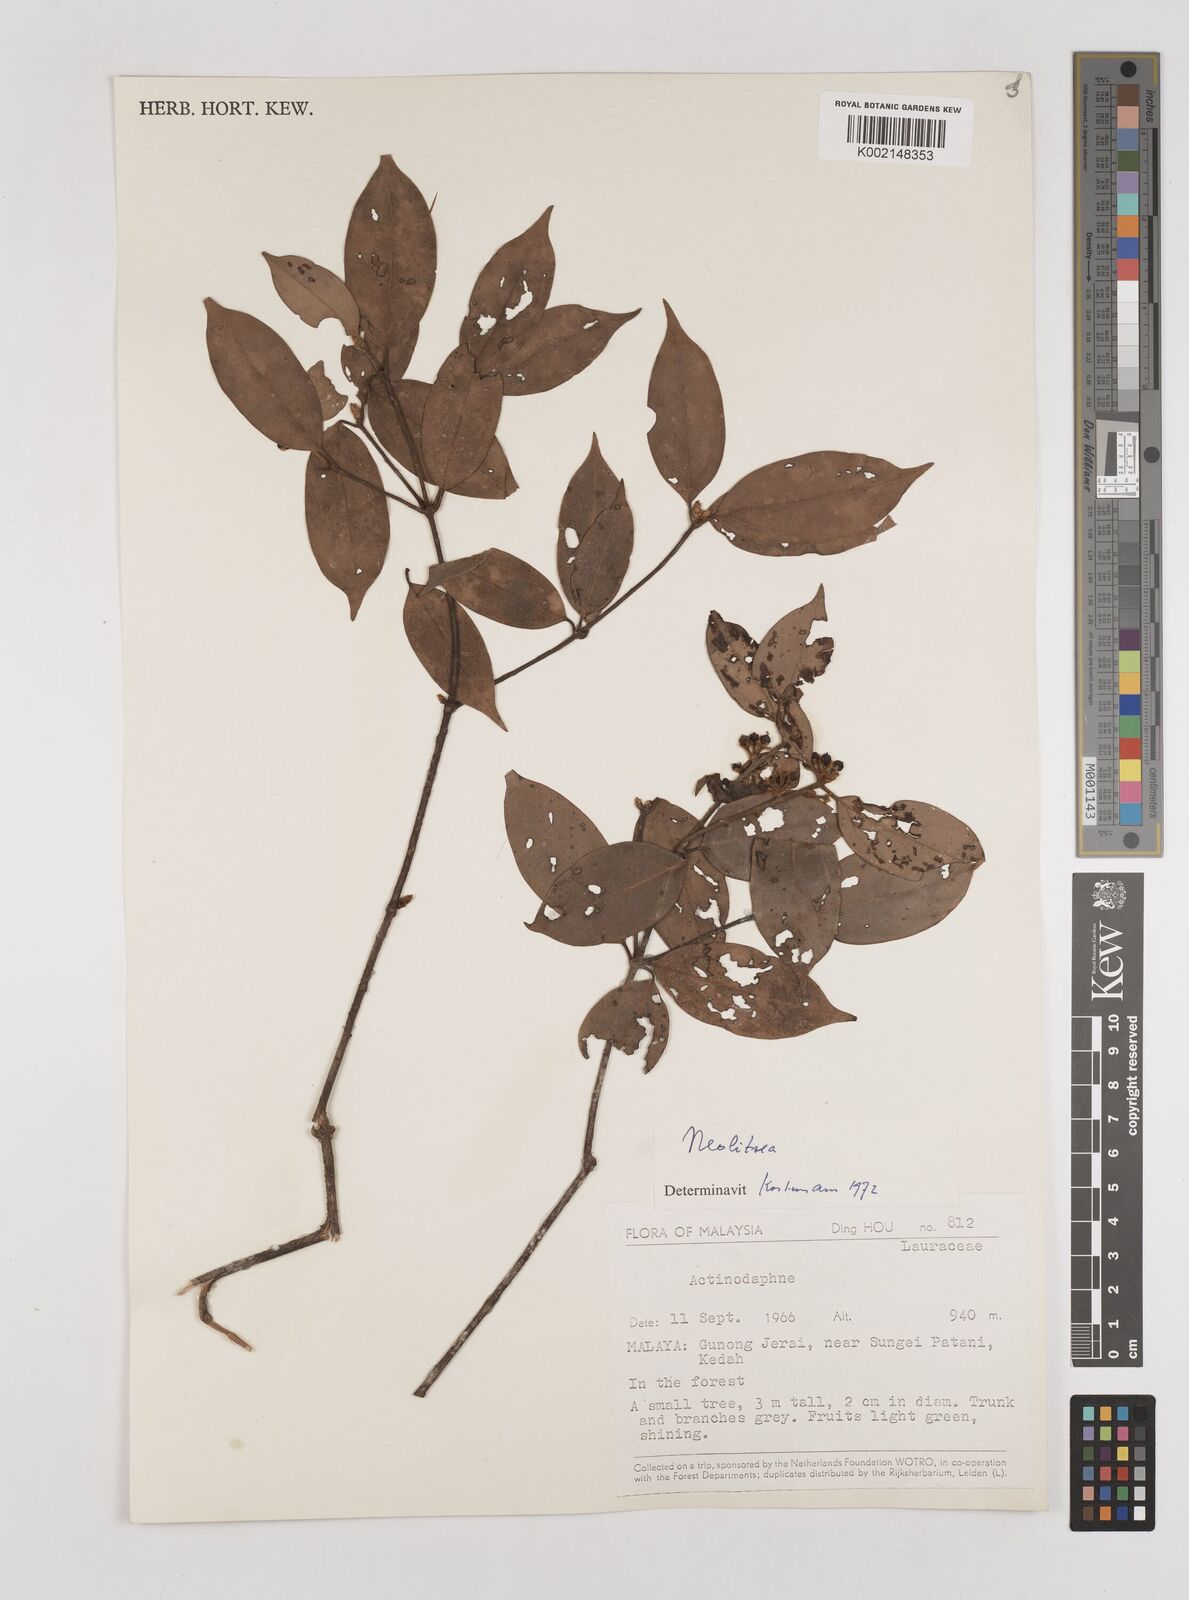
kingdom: Plantae
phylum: Tracheophyta
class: Magnoliopsida
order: Laurales
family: Lauraceae
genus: Neolitsea
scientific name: Neolitsea
